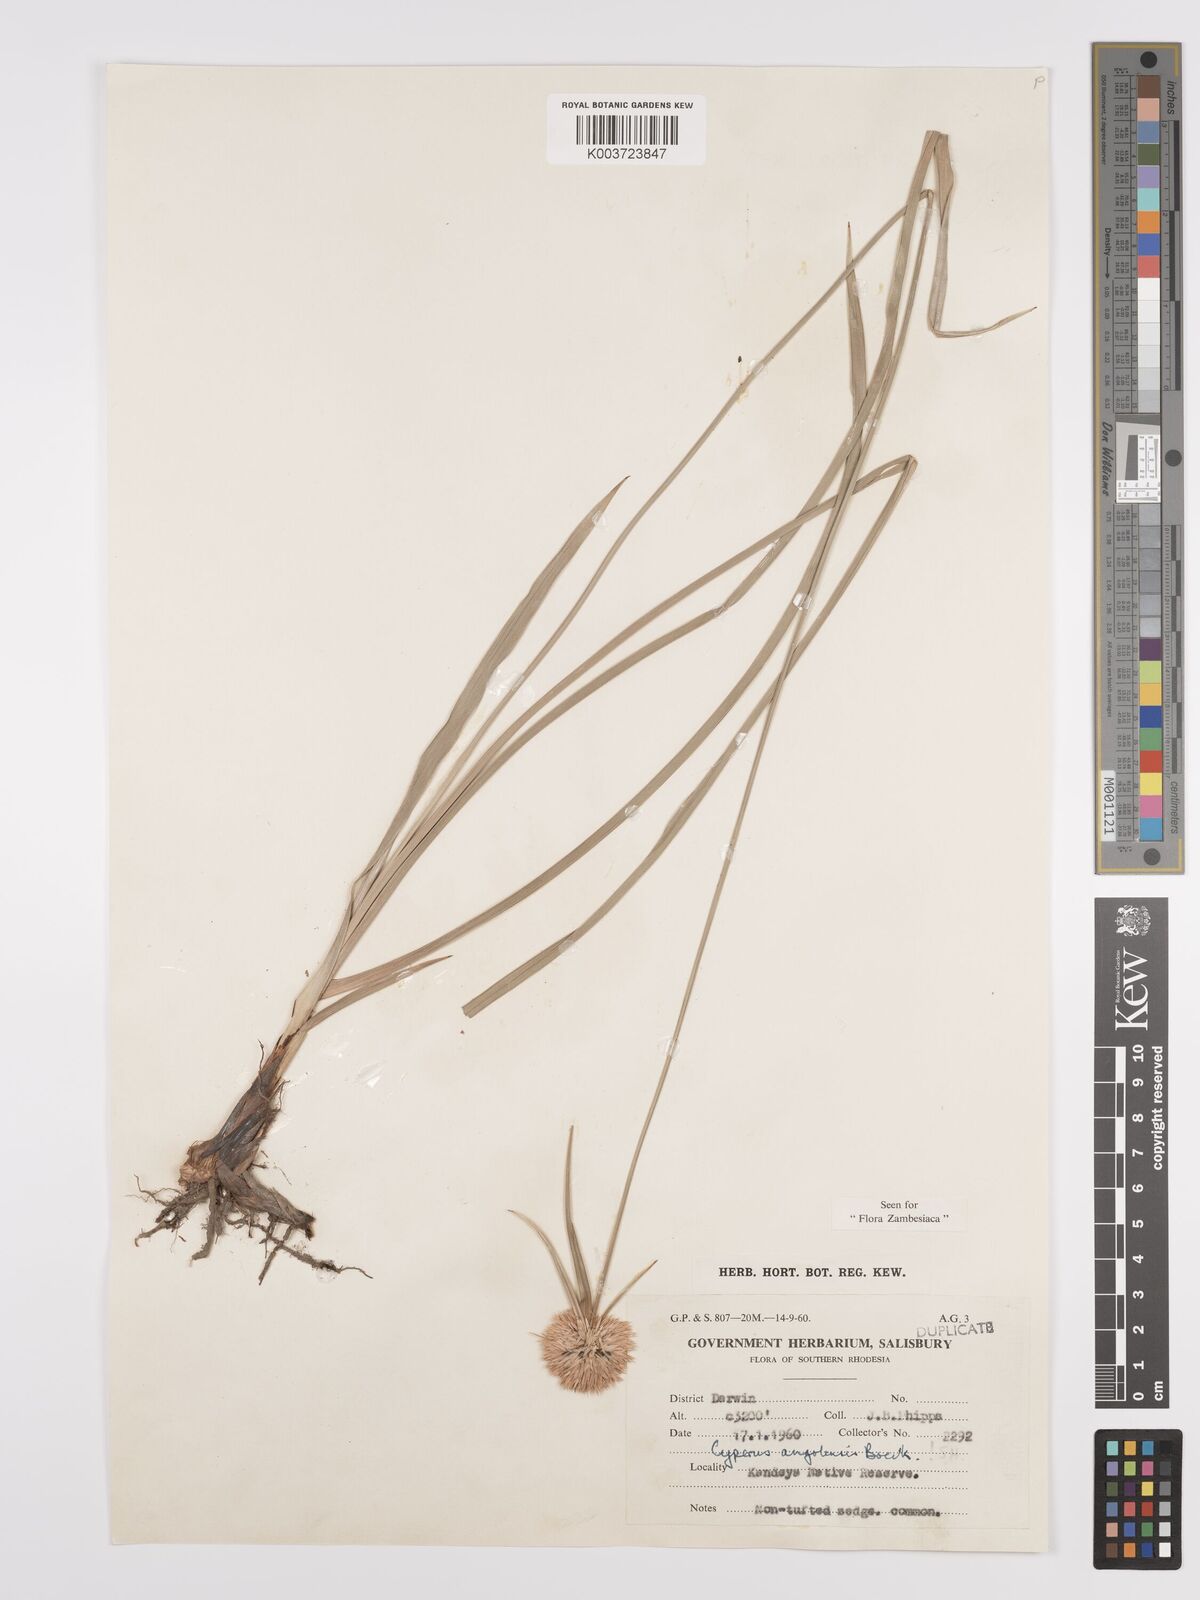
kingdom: Plantae
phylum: Tracheophyta
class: Liliopsida
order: Poales
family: Cyperaceae
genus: Cyperus
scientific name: Cyperus angolensis
